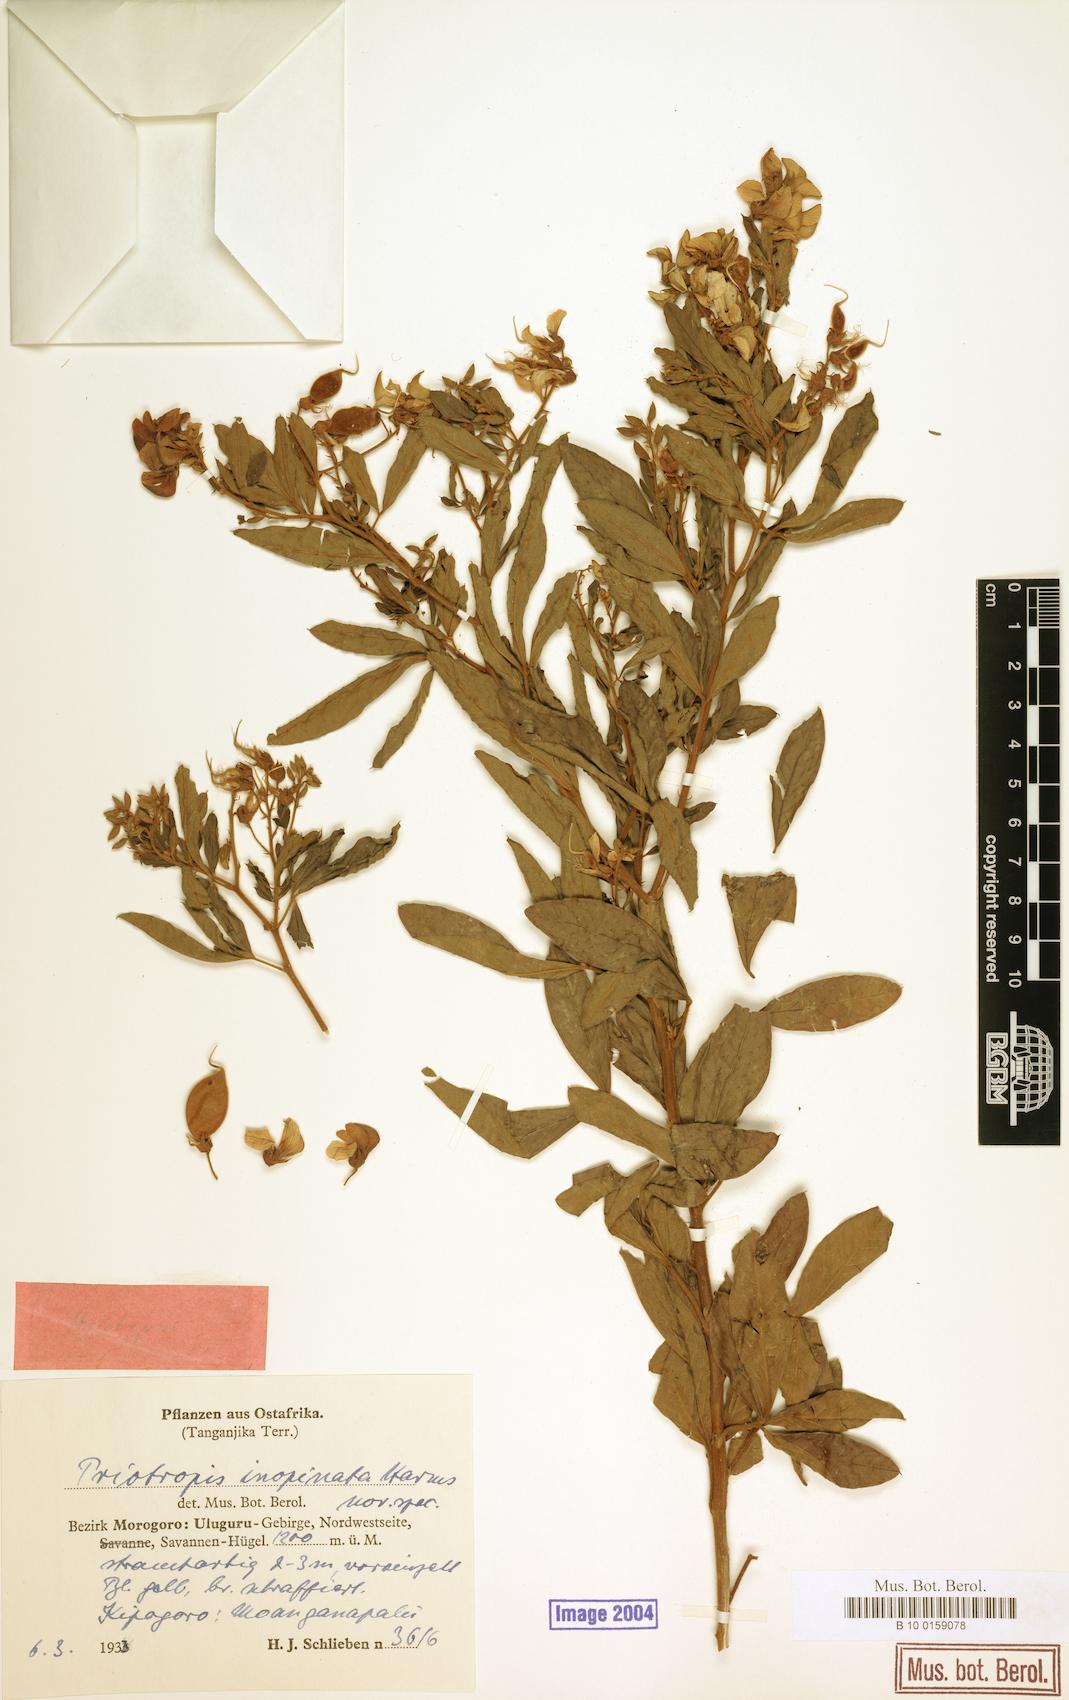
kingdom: Plantae
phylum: Tracheophyta
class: Magnoliopsida
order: Fabales
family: Fabaceae
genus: Crotalaria
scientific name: Crotalaria inopinata
